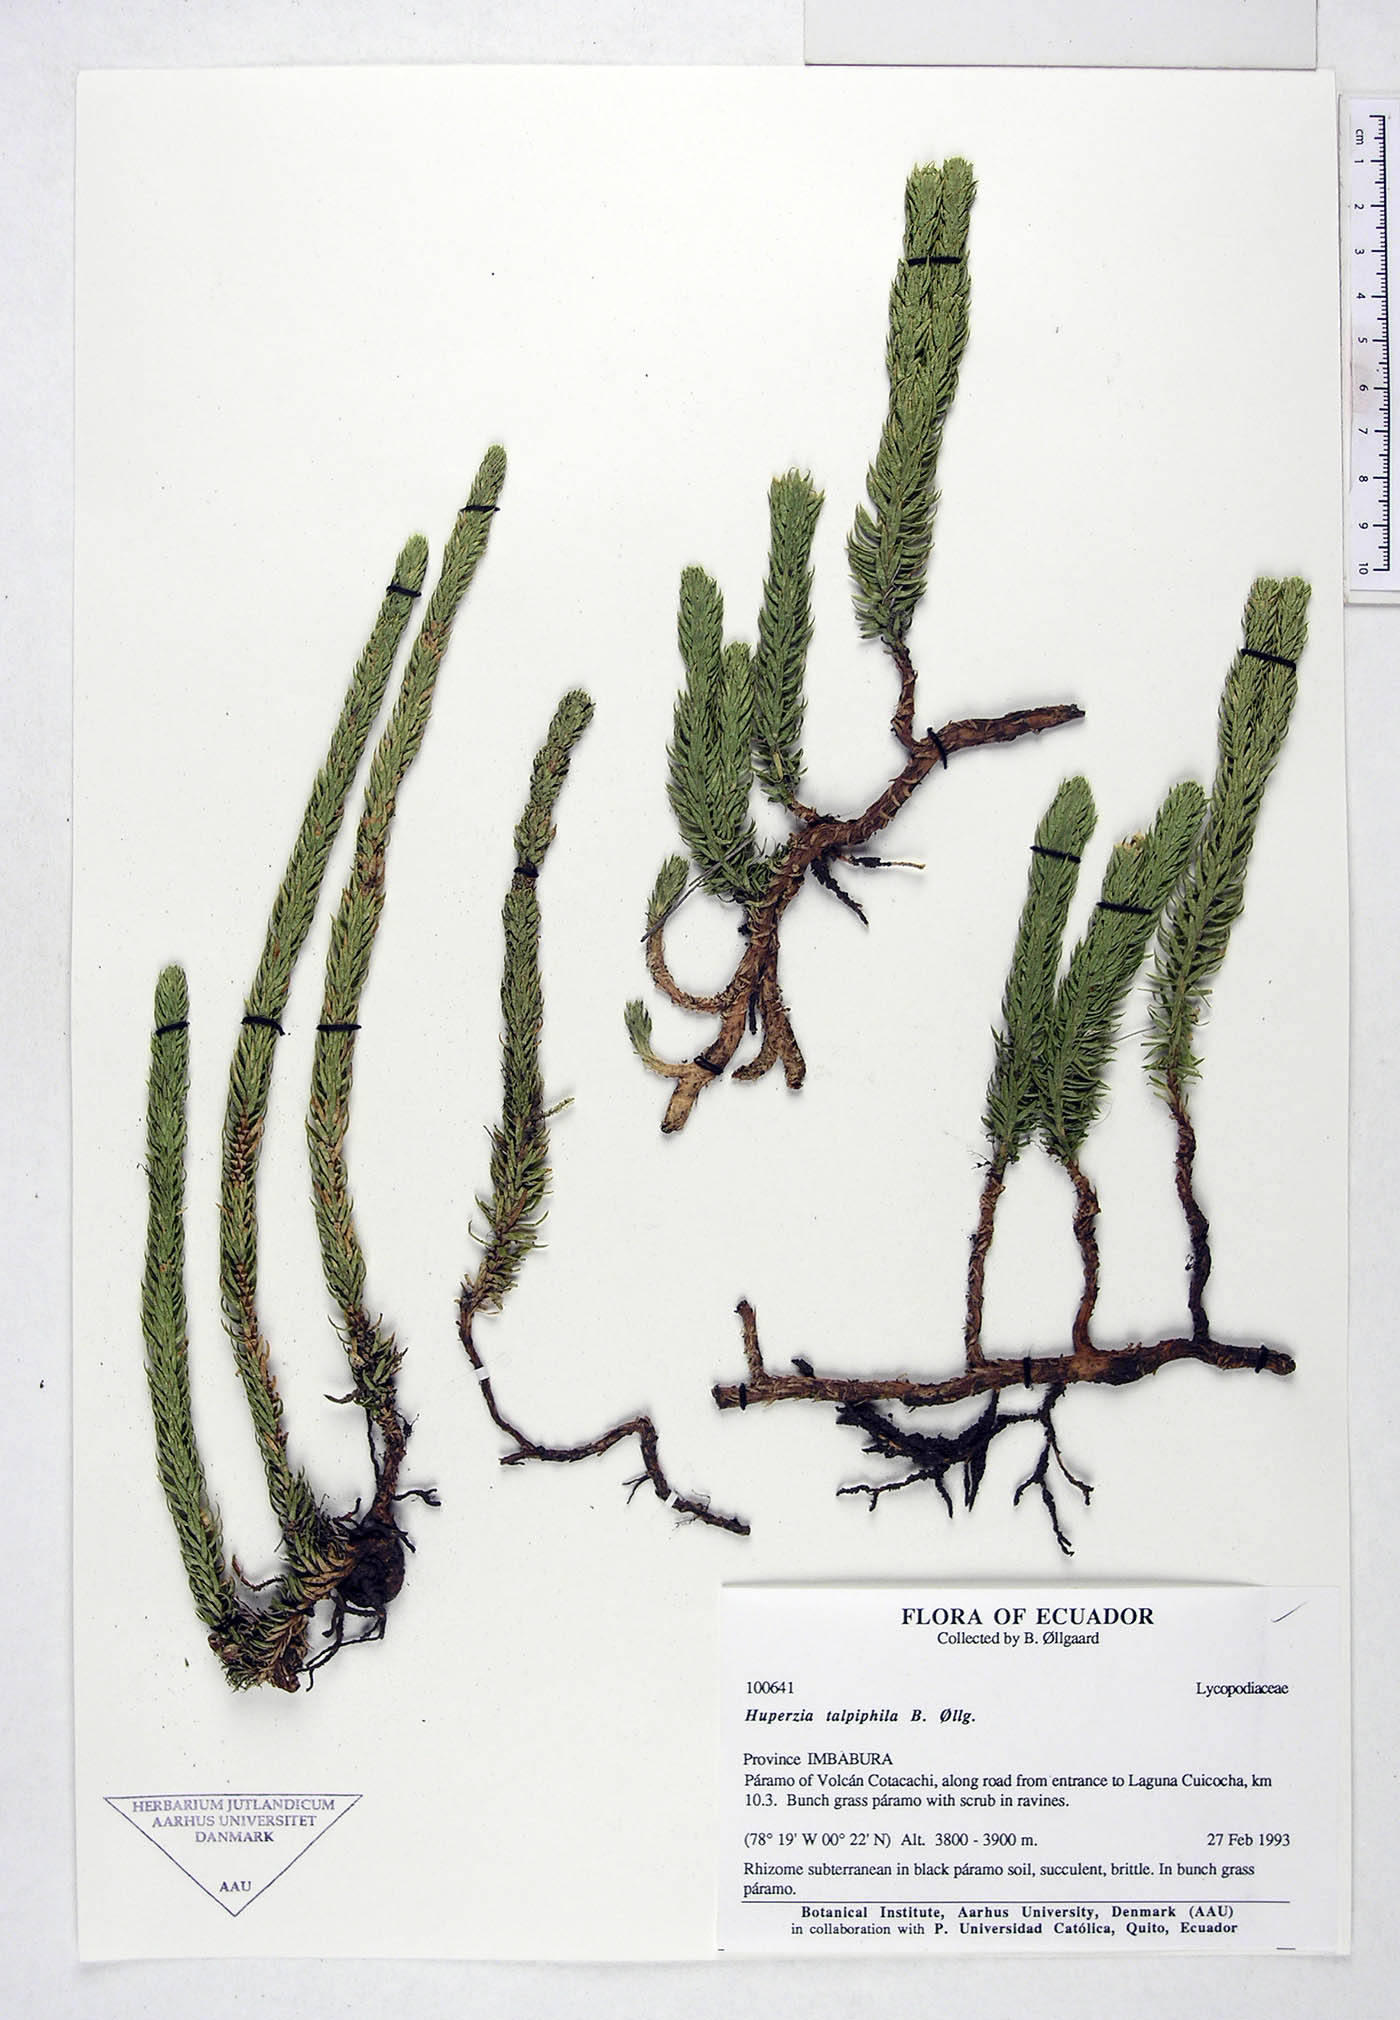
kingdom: Plantae
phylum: Tracheophyta
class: Lycopodiopsida
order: Lycopodiales
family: Lycopodiaceae
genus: Phlegmariurus
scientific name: Phlegmariurus talpiphilus
